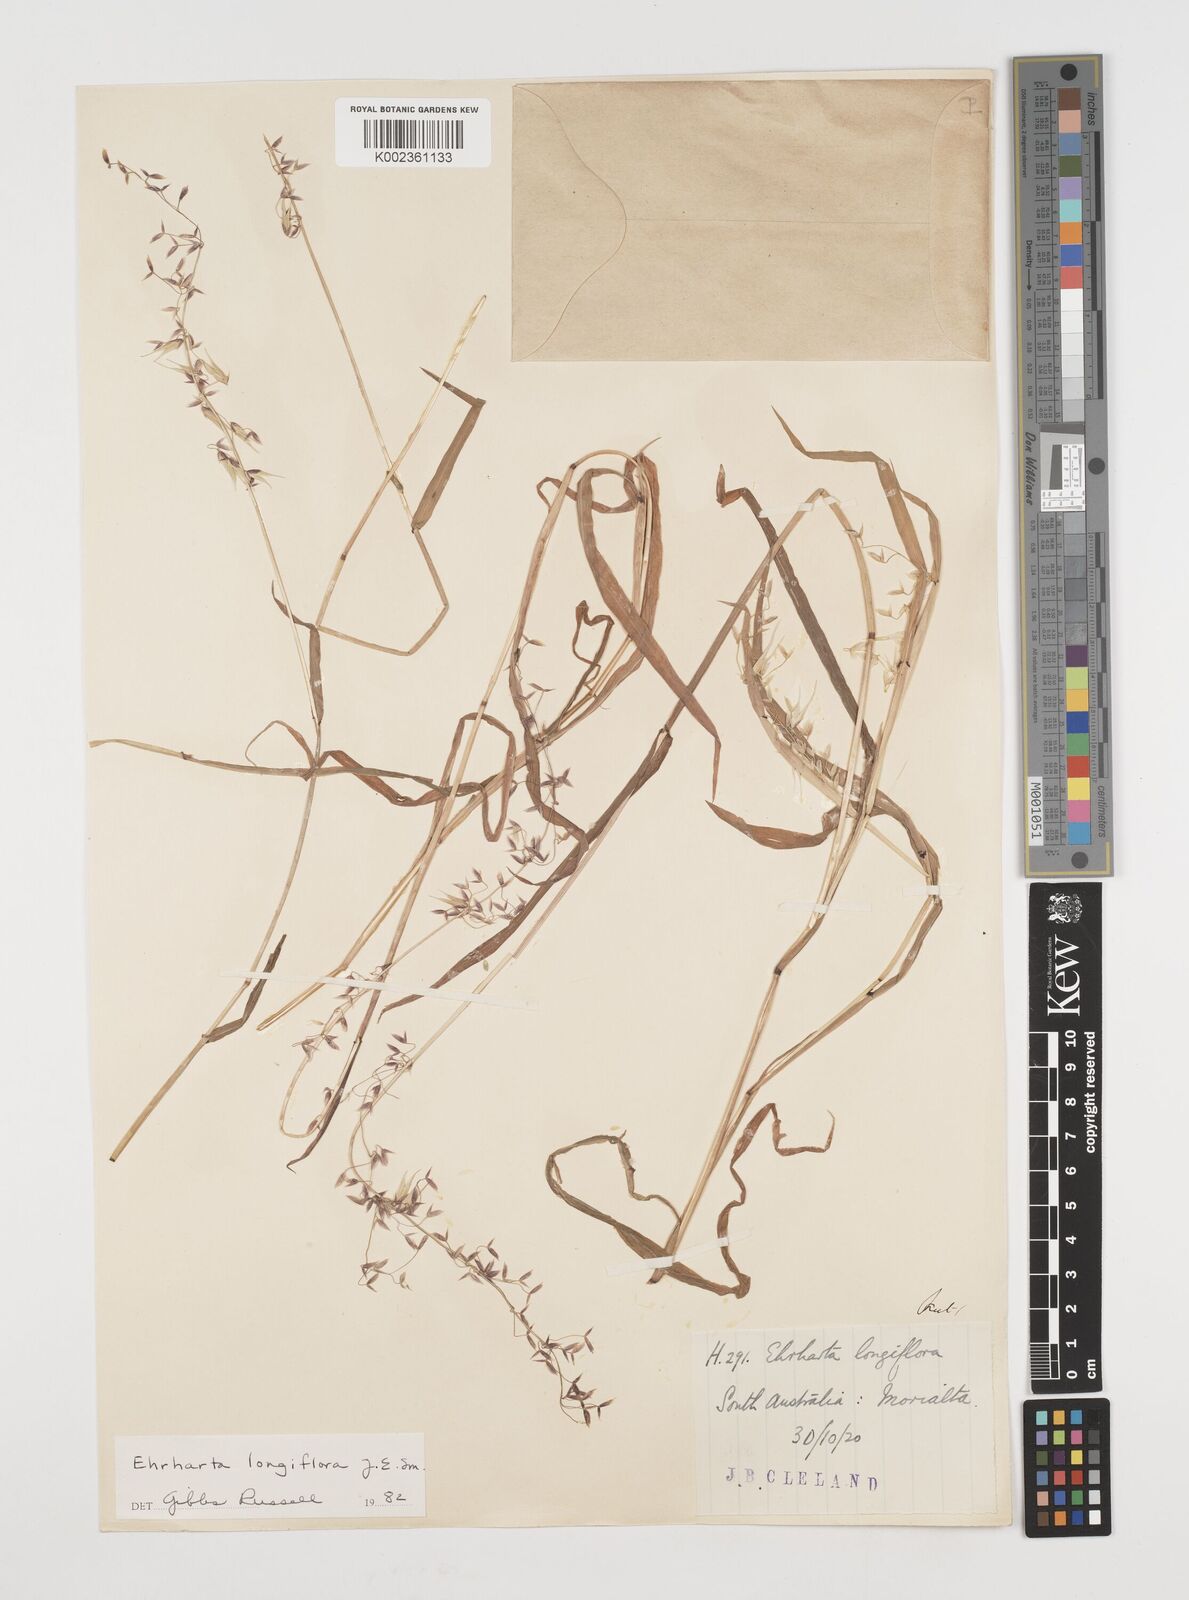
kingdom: Plantae
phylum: Tracheophyta
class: Liliopsida
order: Poales
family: Poaceae
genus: Ehrharta
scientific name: Ehrharta longiflora
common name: Longflowered veldtgrass
